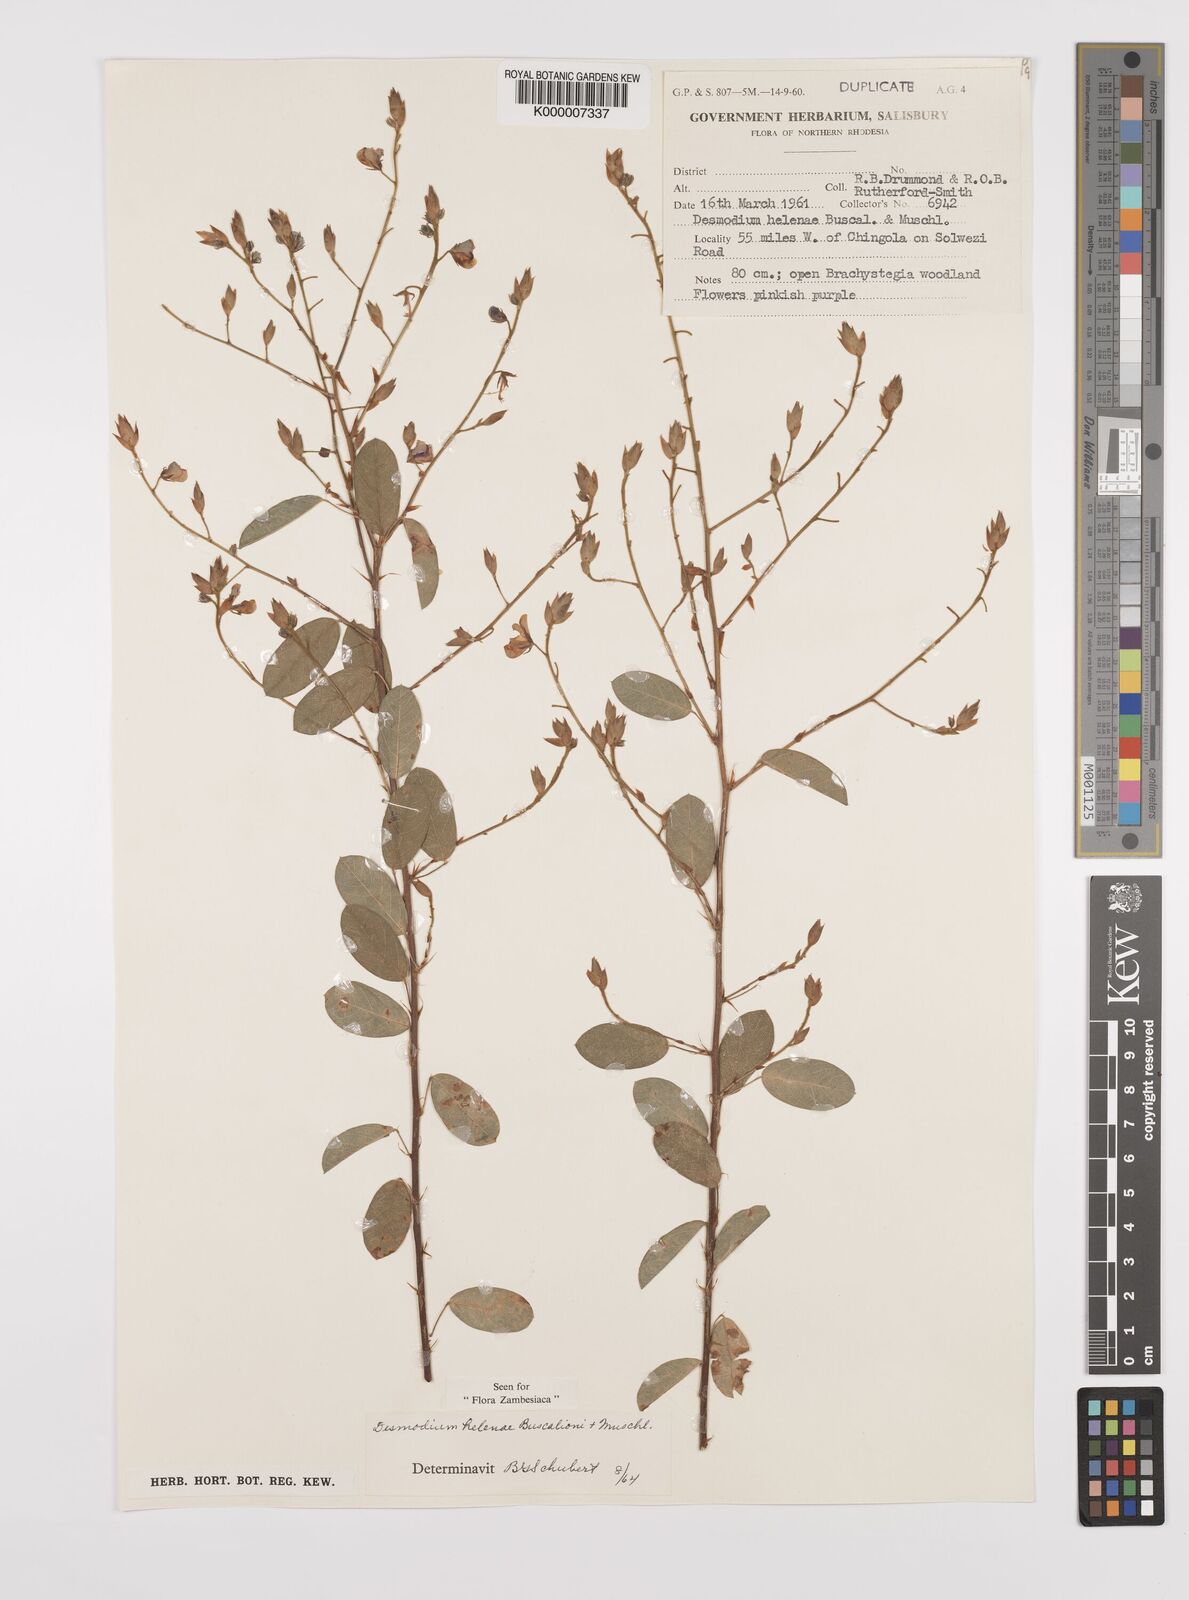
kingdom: Plantae
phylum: Tracheophyta
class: Magnoliopsida
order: Fabales
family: Fabaceae
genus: Grona
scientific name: Grona helenae
